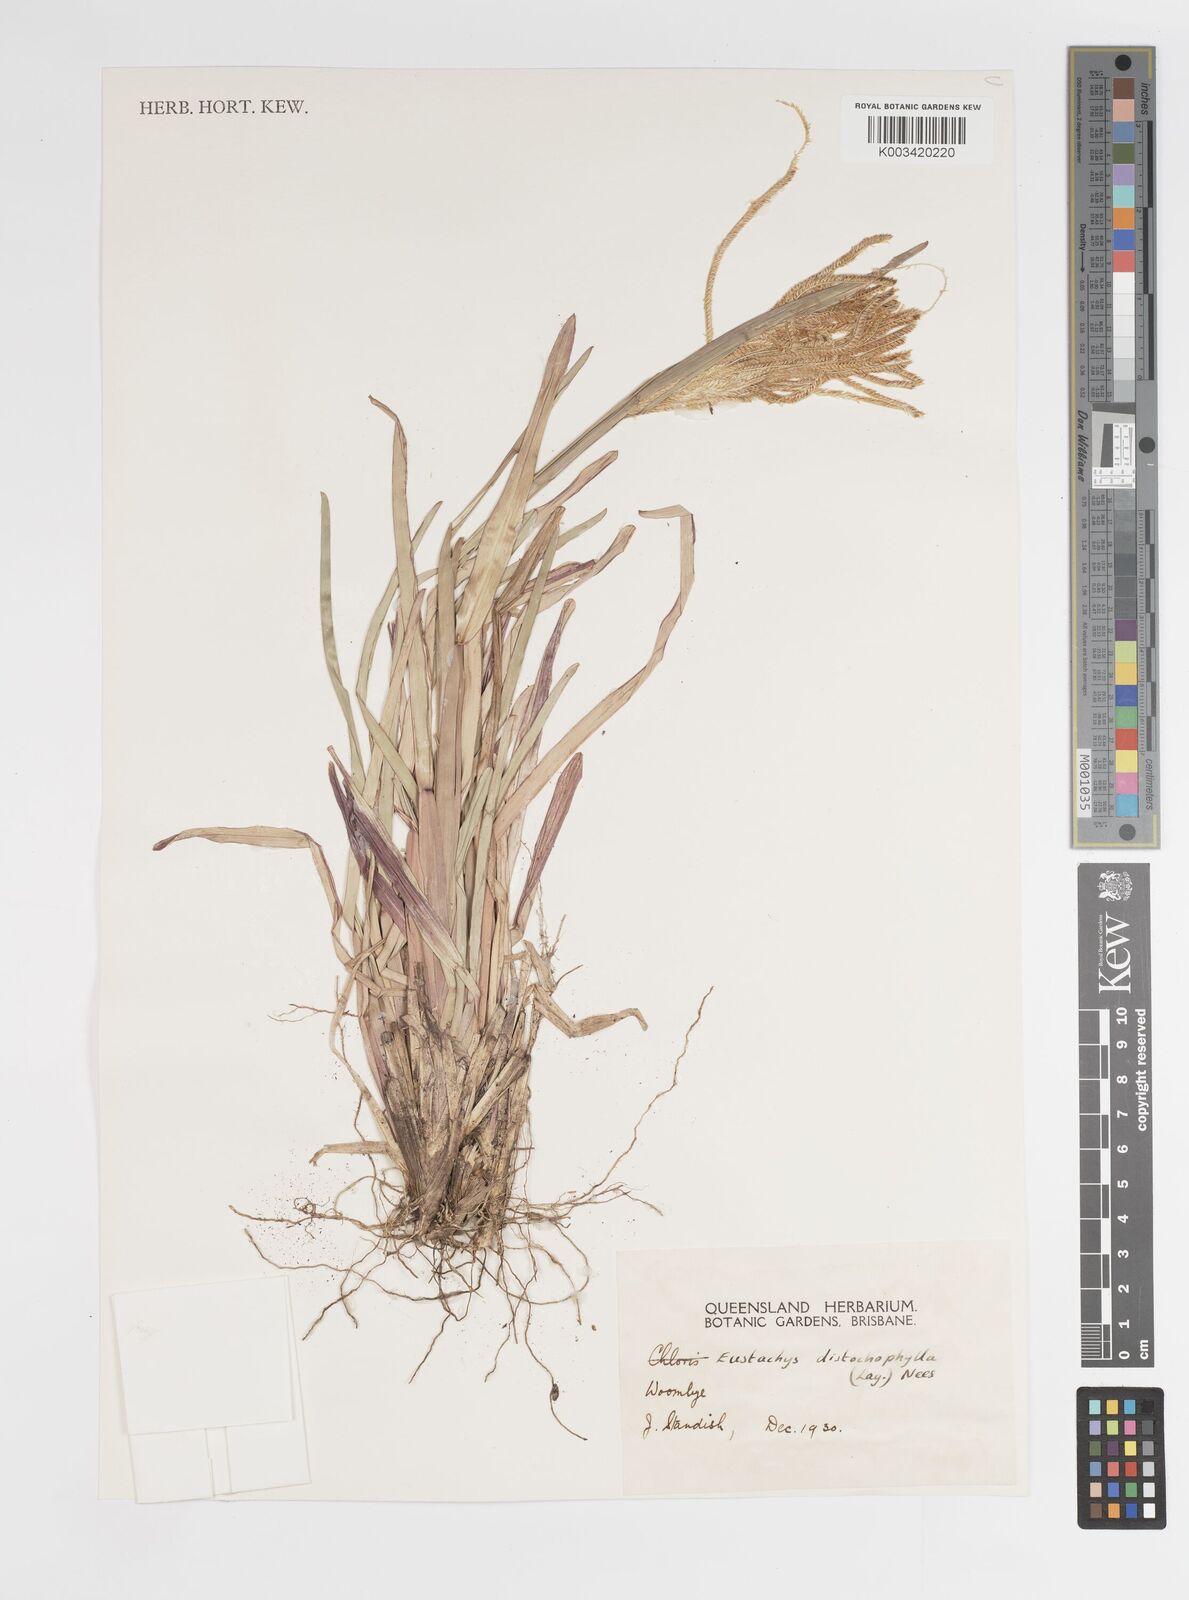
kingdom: Plantae
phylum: Tracheophyta
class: Liliopsida
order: Poales
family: Poaceae
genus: Eustachys
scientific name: Eustachys distichophylla
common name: Weeping fingergrass
